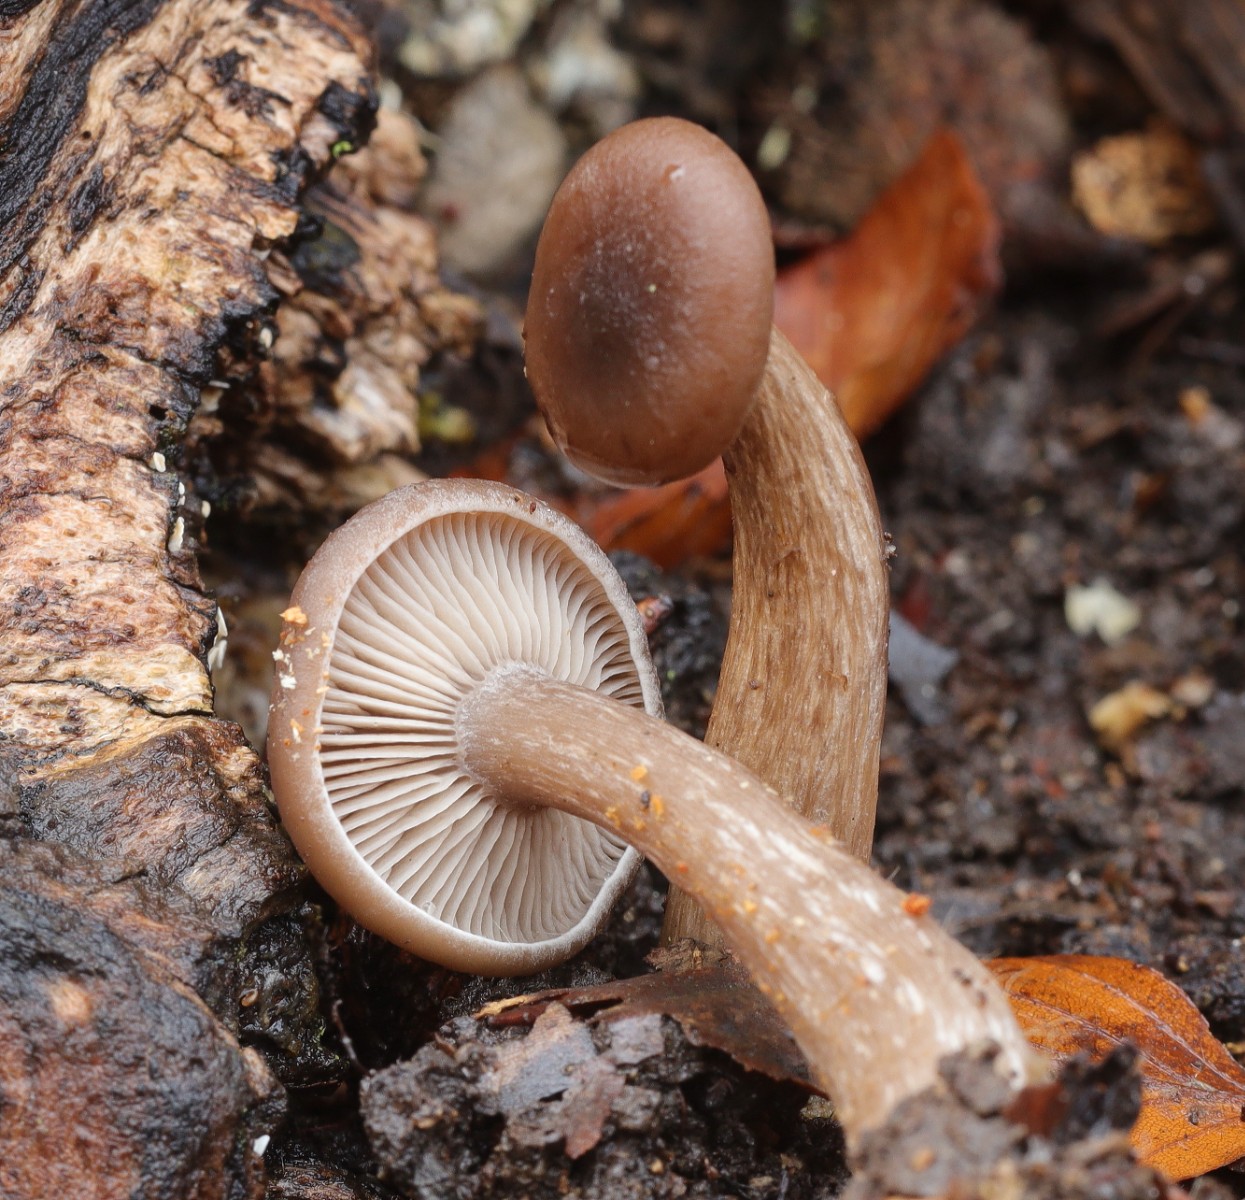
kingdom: Fungi
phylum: Basidiomycota
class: Agaricomycetes
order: Agaricales
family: Pseudoclitocybaceae
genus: Pseudoclitocybe
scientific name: Pseudoclitocybe cyathiformis
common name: almindelig bægertragthat
